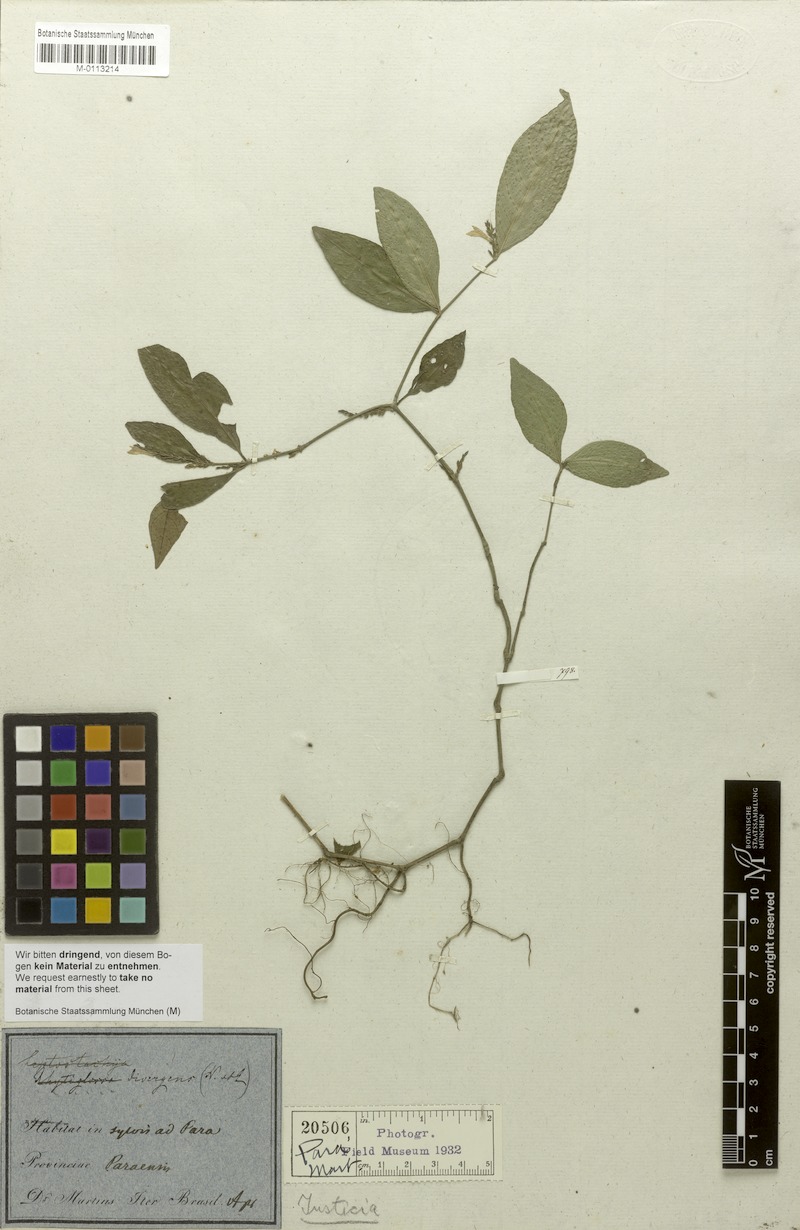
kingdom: Plantae
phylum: Tracheophyta
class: Magnoliopsida
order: Lamiales
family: Acanthaceae
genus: Justicia
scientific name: Justicia divergens
